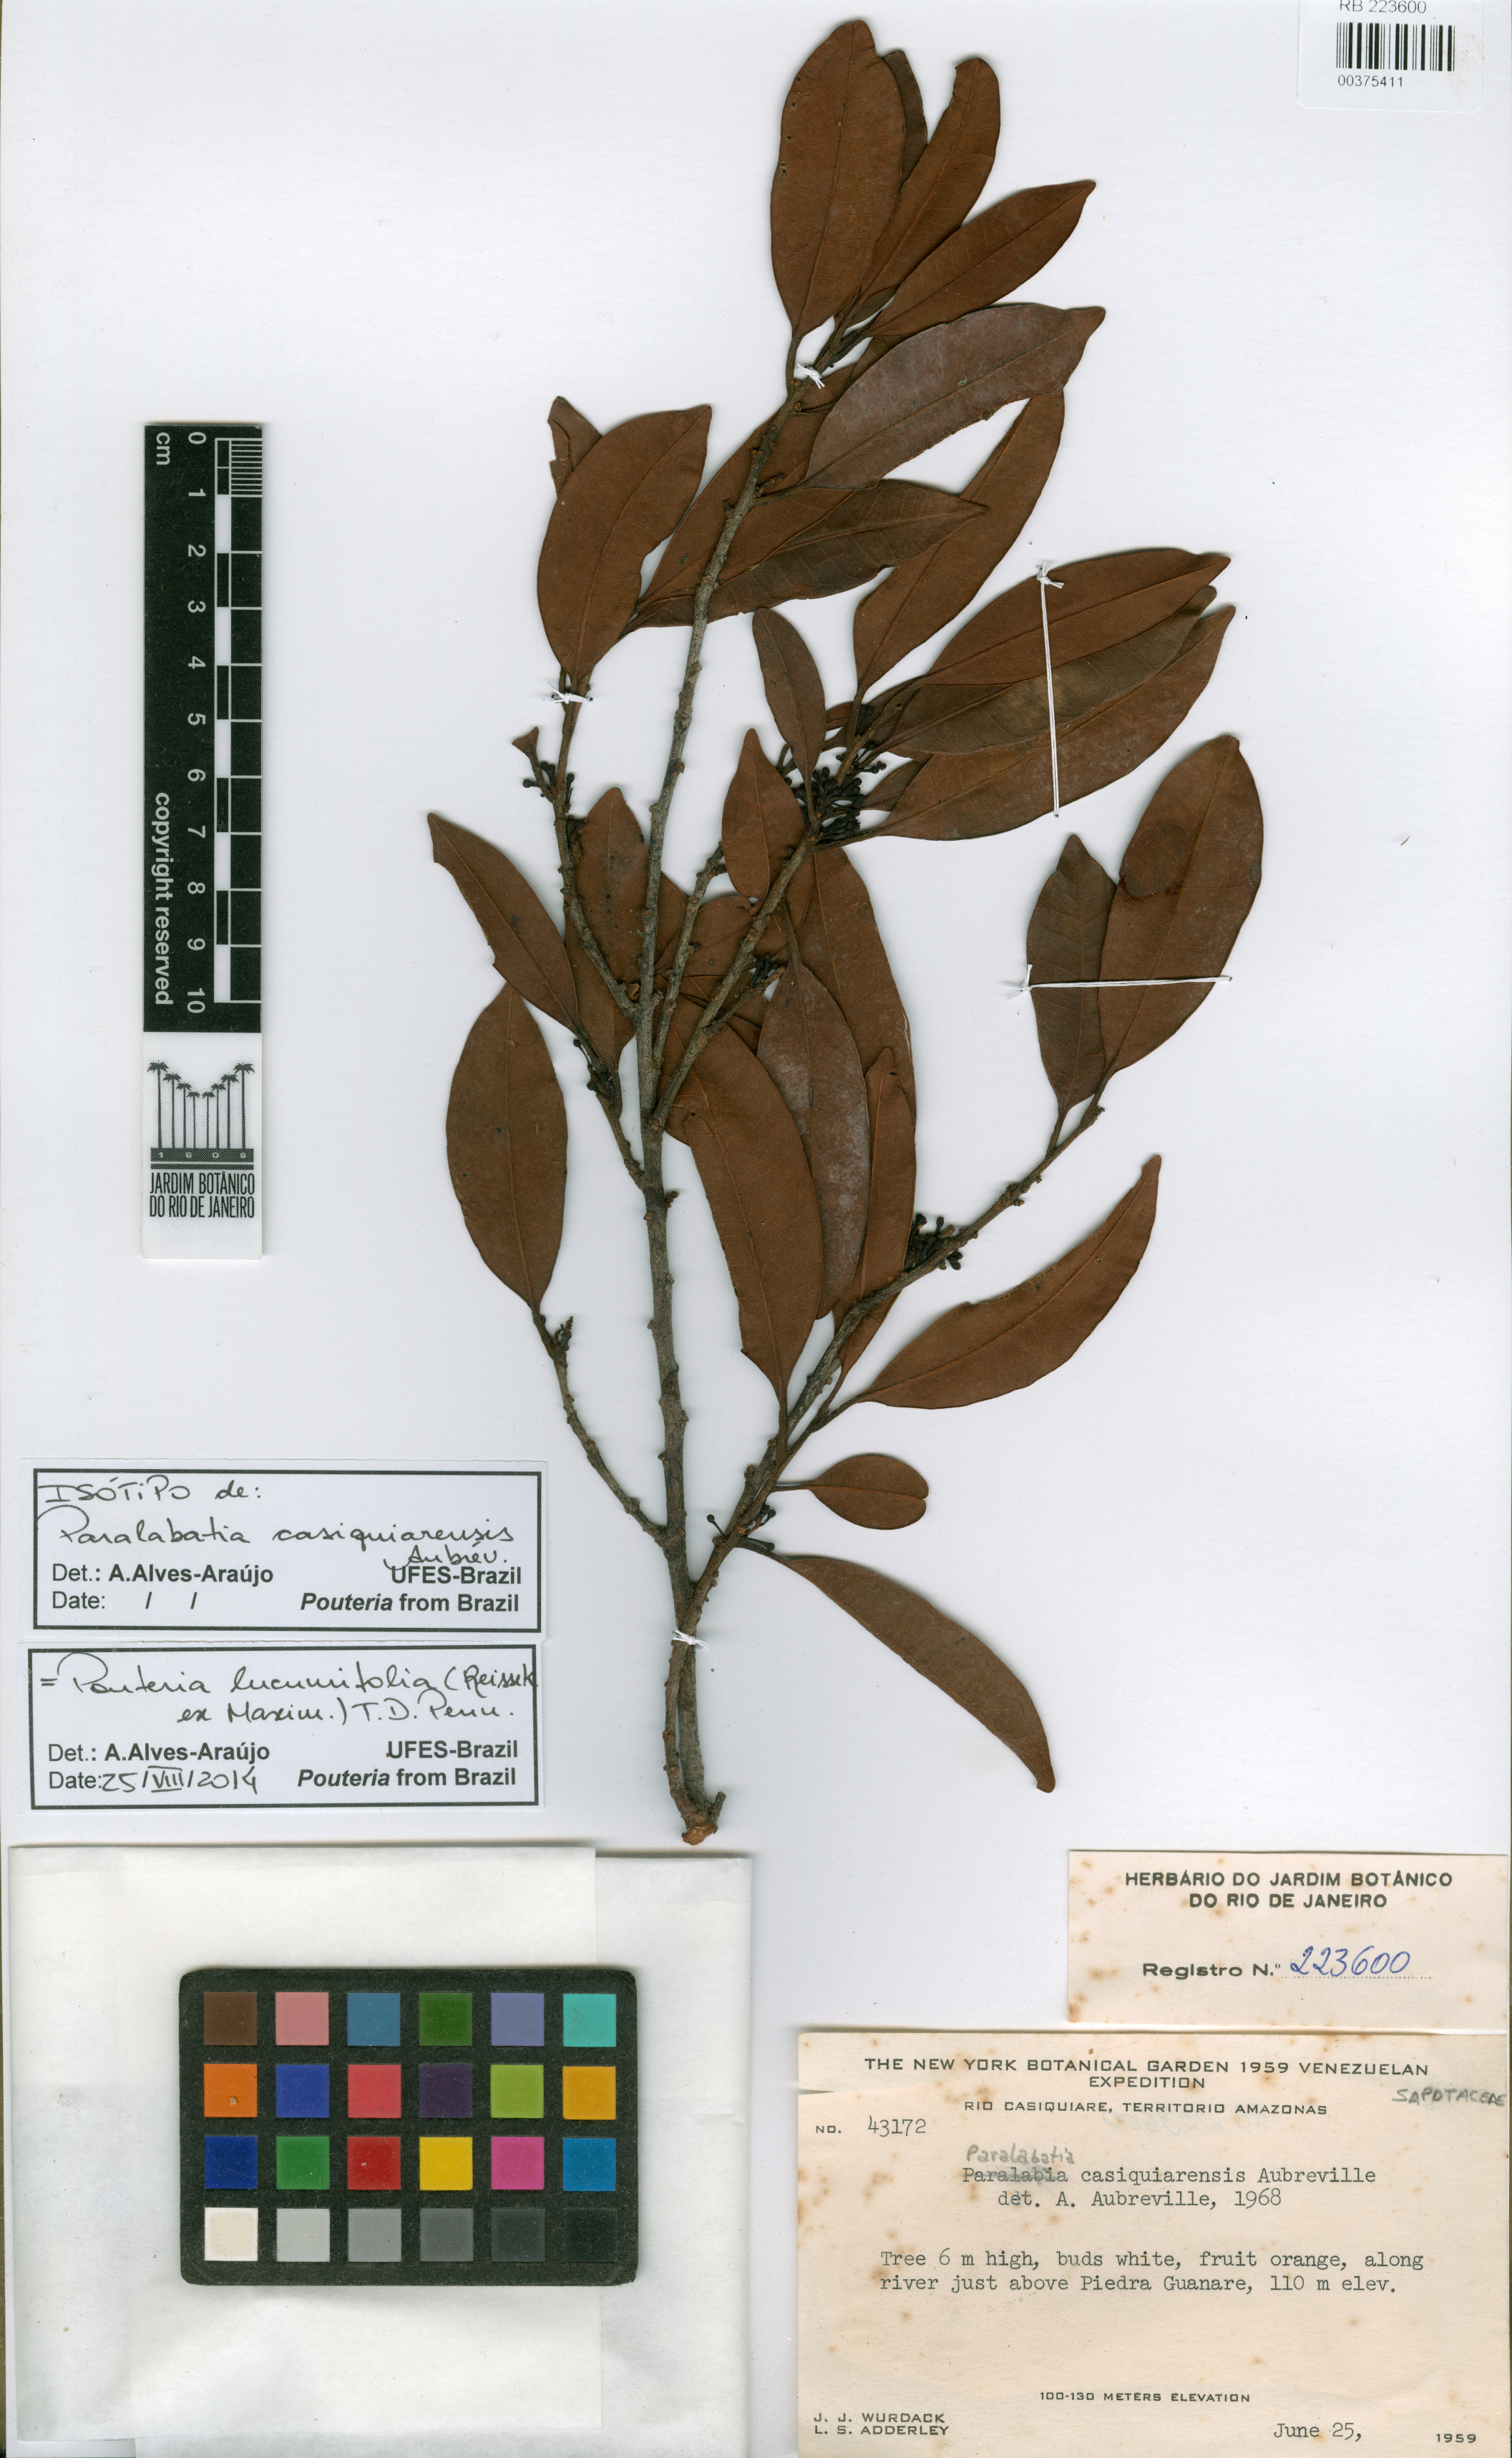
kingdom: Plantae
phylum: Tracheophyta
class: Magnoliopsida
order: Ericales
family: Sapotaceae
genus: Pouteria
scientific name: Pouteria lucumifolia
